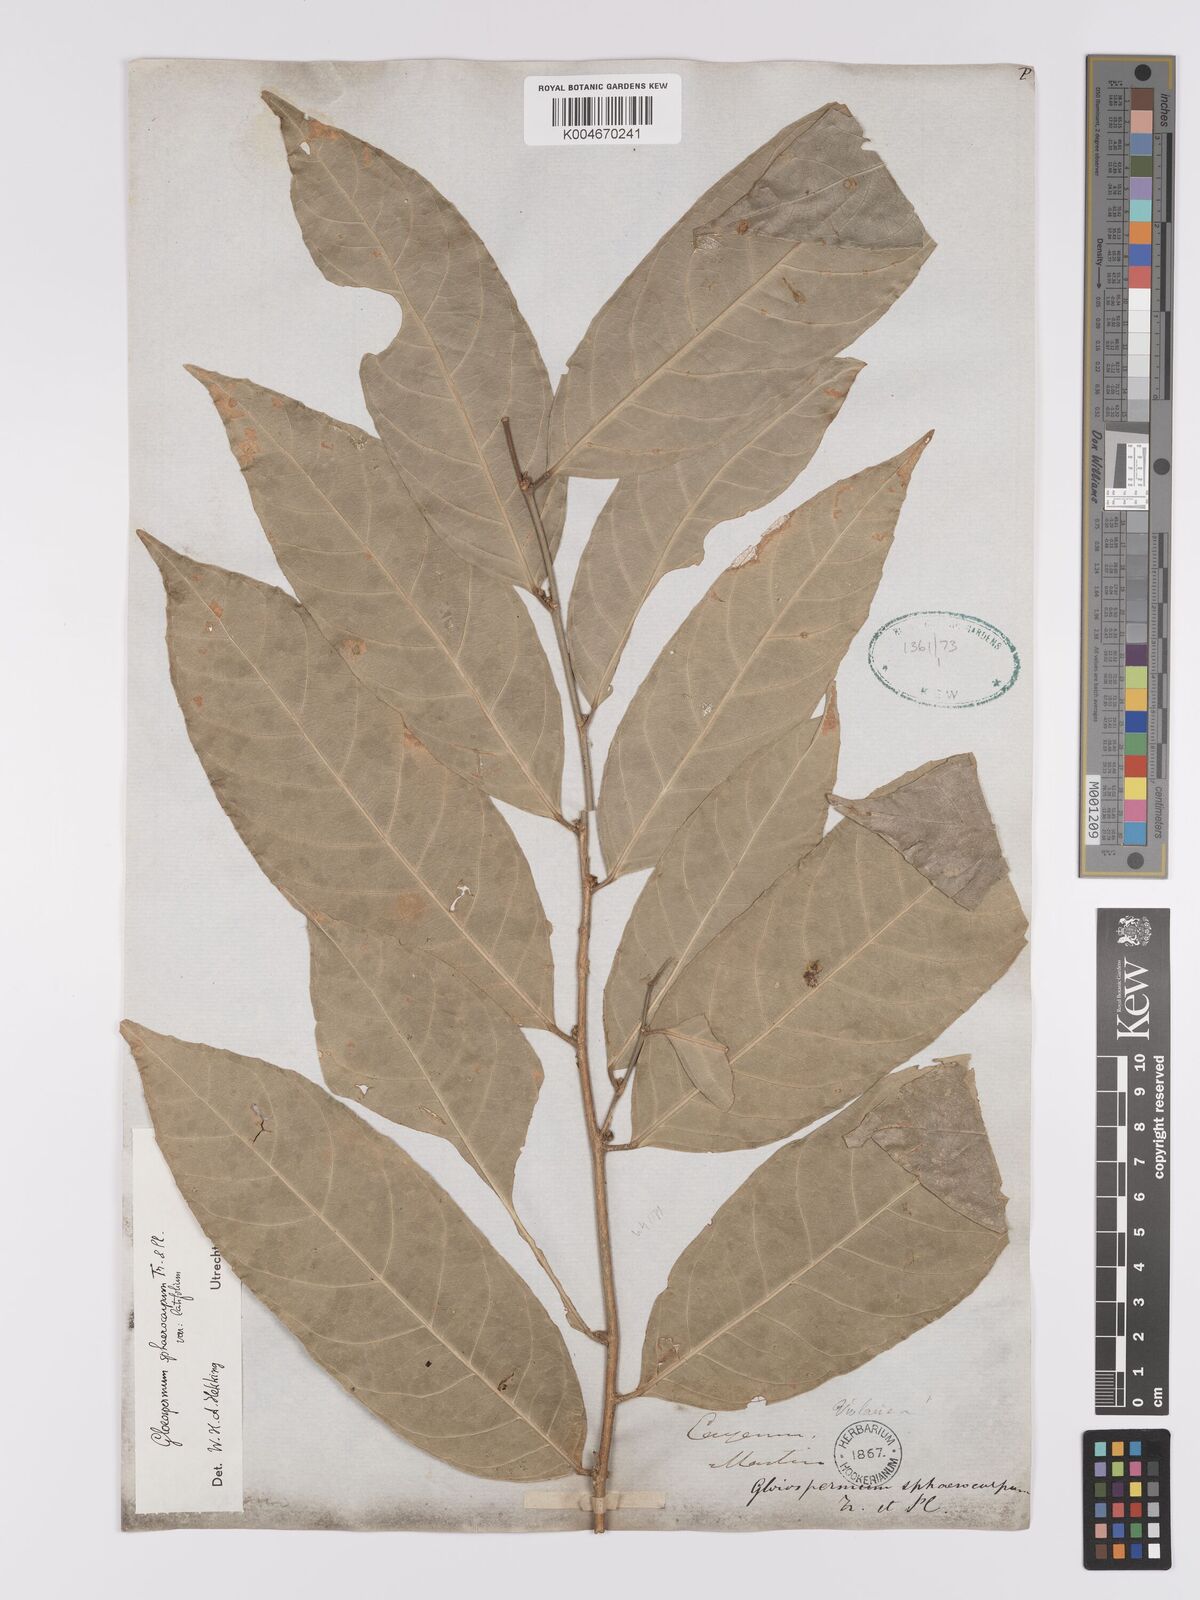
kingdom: Plantae
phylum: Tracheophyta
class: Magnoliopsida
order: Malpighiales
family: Violaceae
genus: Gloeospermum
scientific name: Gloeospermum sphaerocarpum
